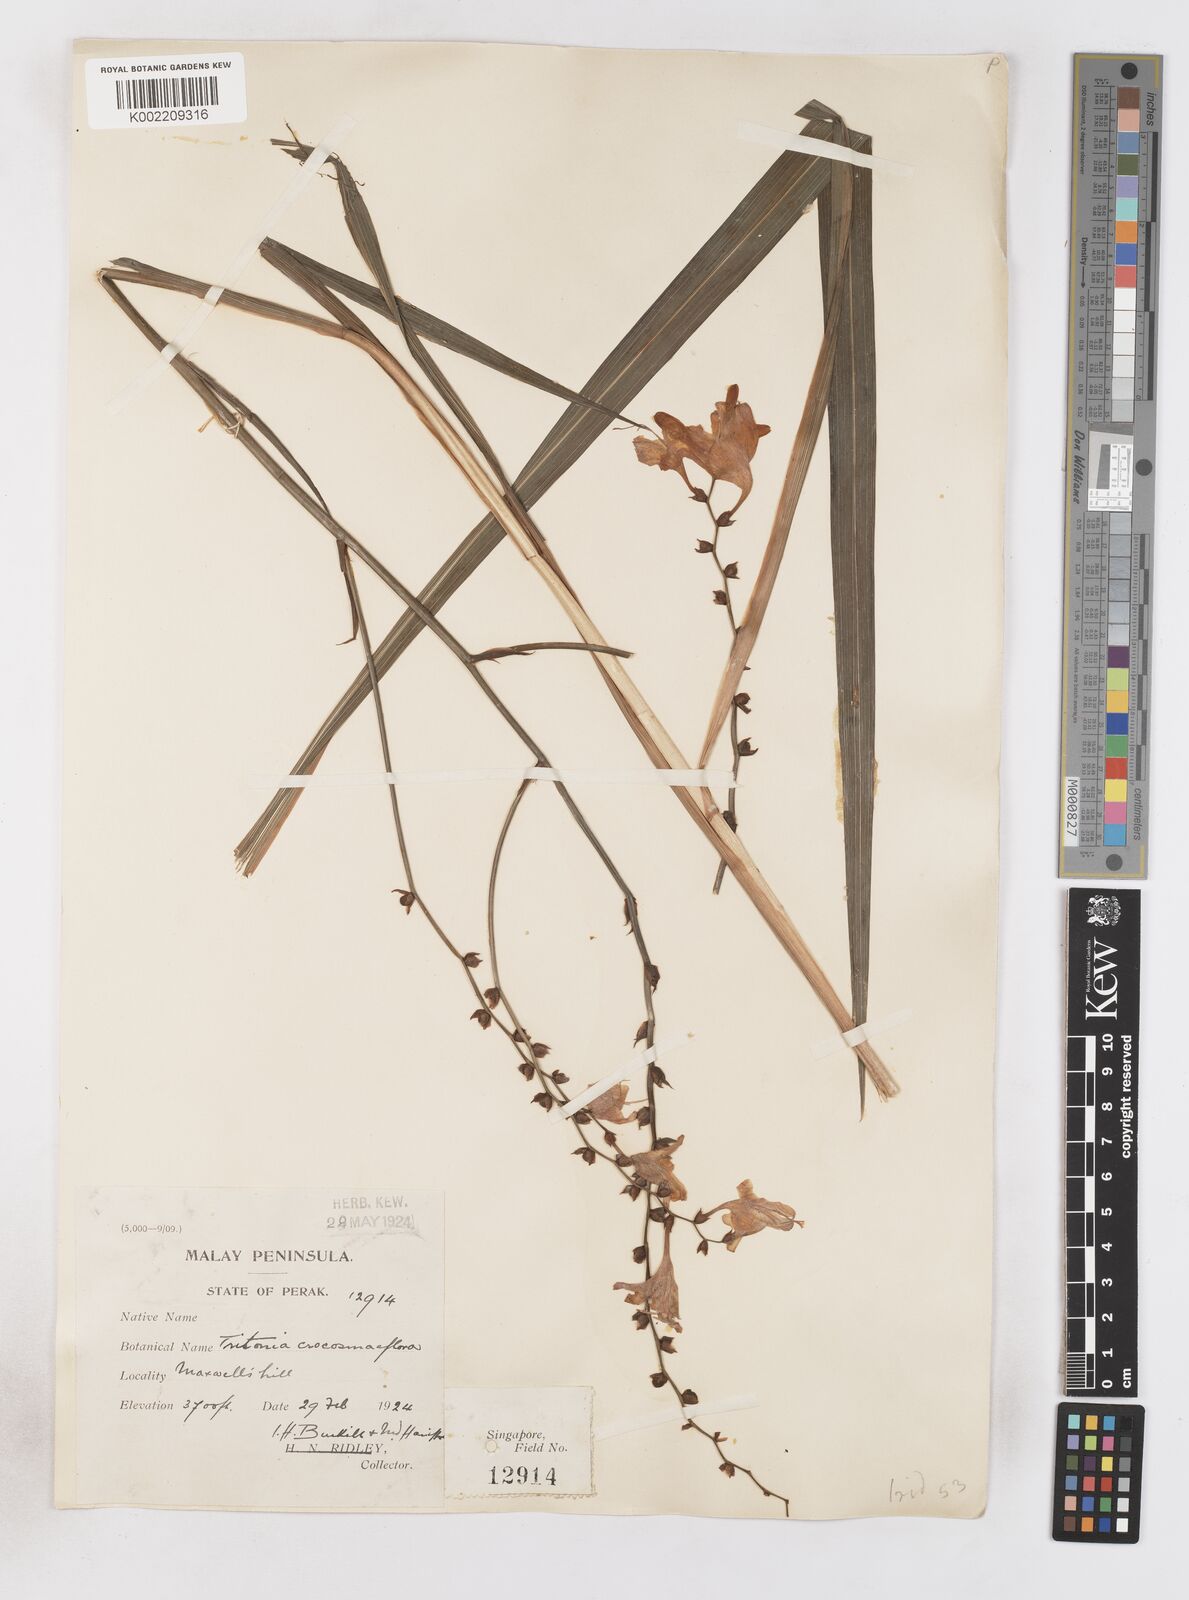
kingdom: Plantae
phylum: Tracheophyta
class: Liliopsida
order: Asparagales
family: Iridaceae
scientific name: Iridaceae
